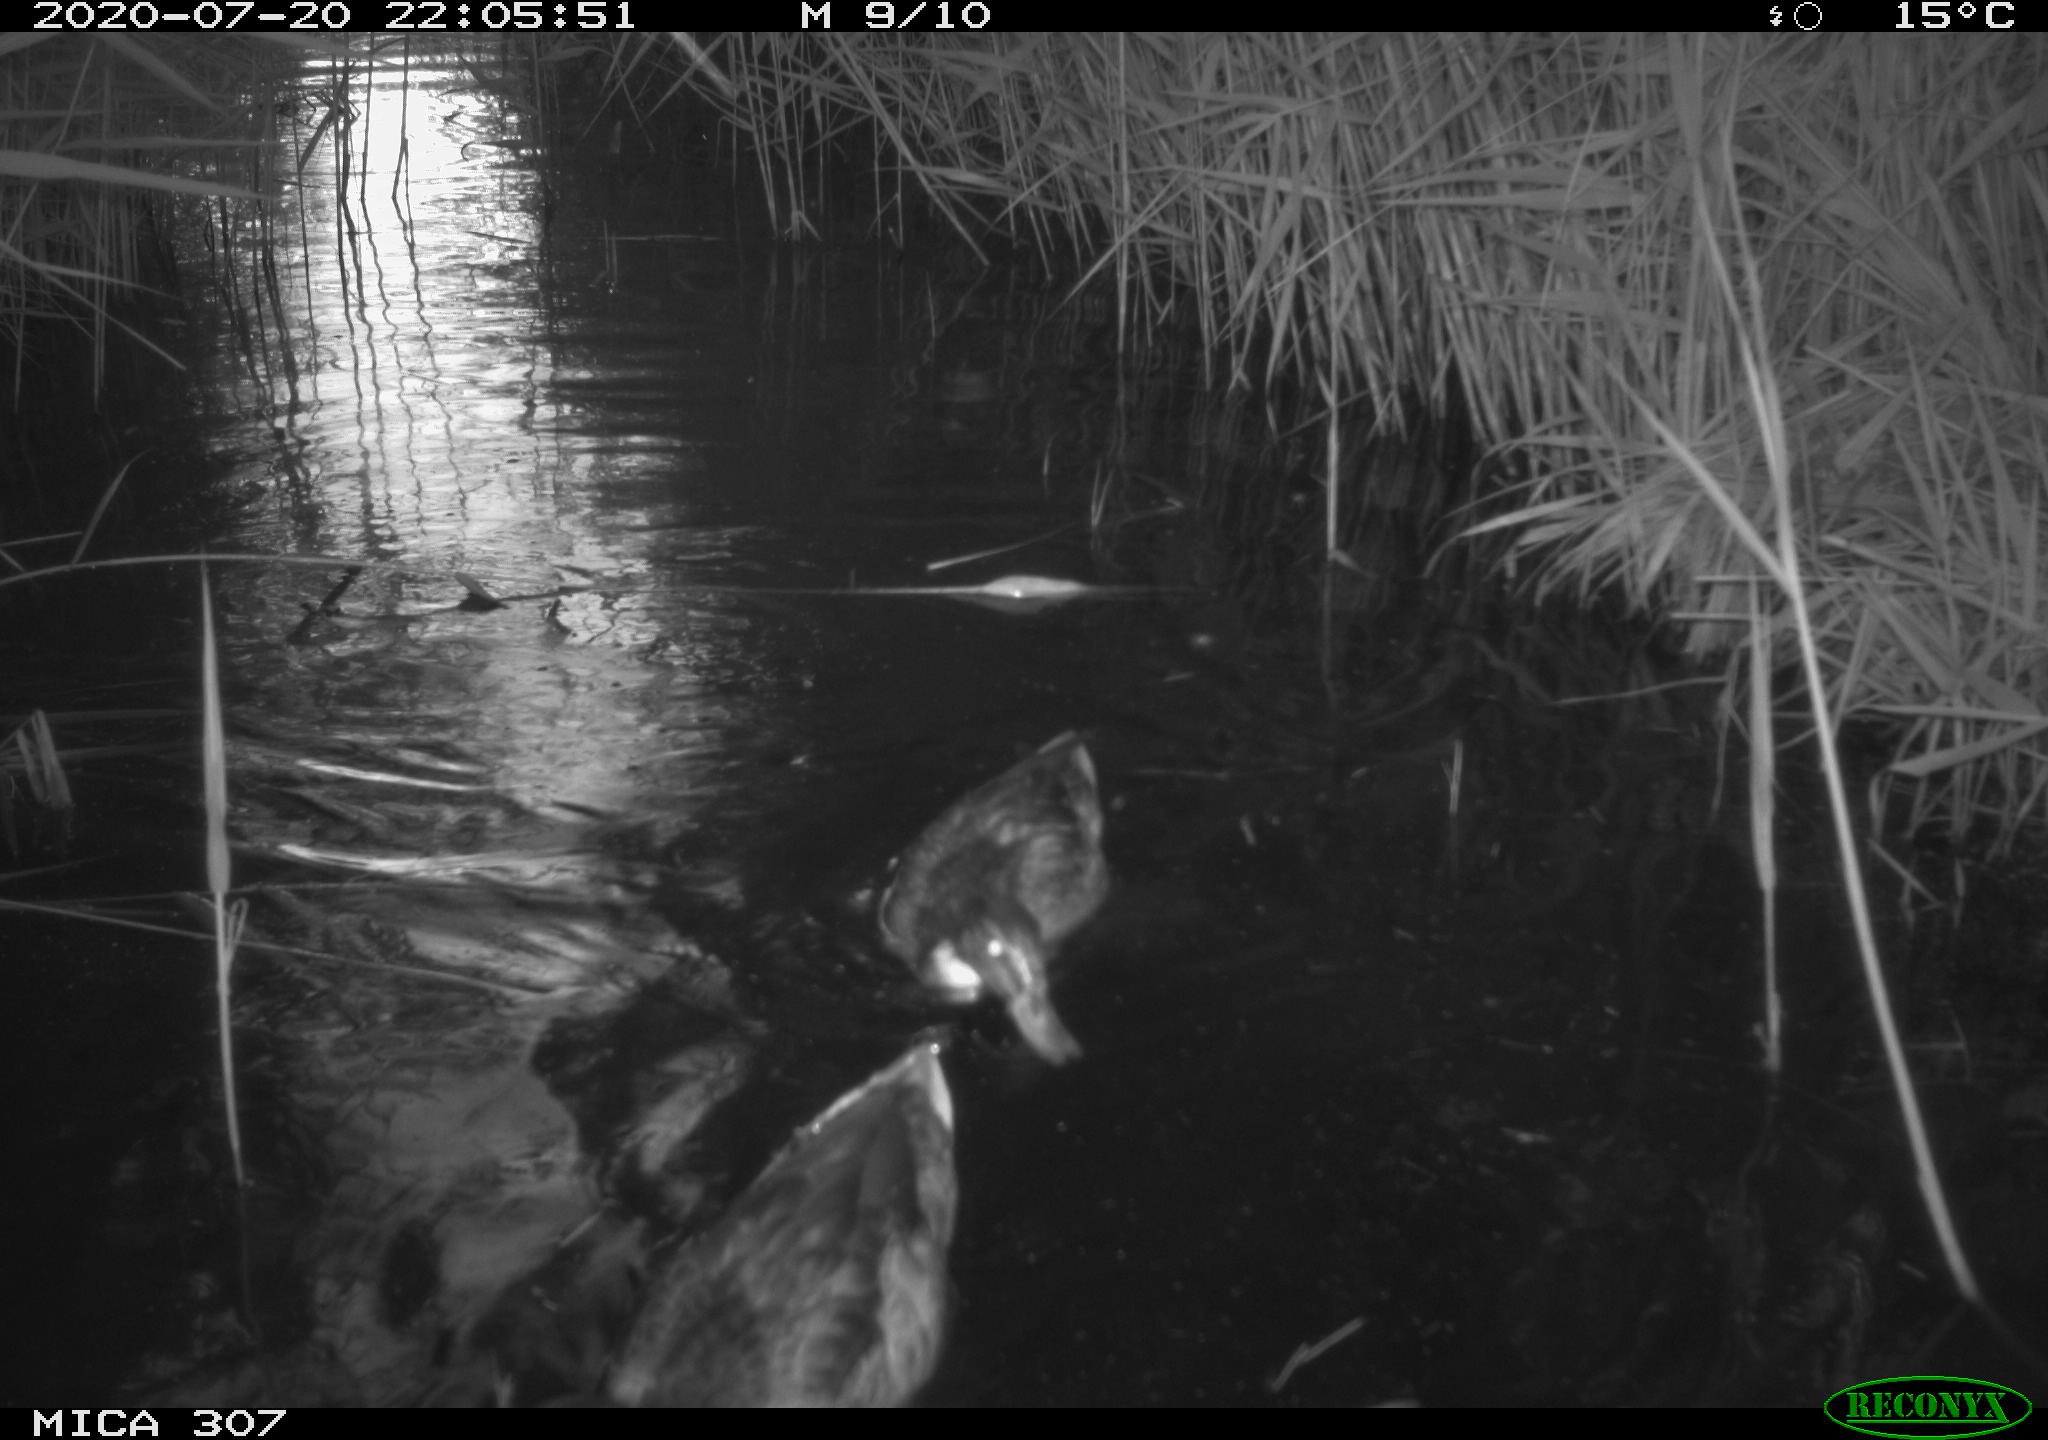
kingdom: Animalia
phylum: Chordata
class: Aves
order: Anseriformes
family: Anatidae
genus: Anas
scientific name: Anas platyrhynchos
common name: Mallard
